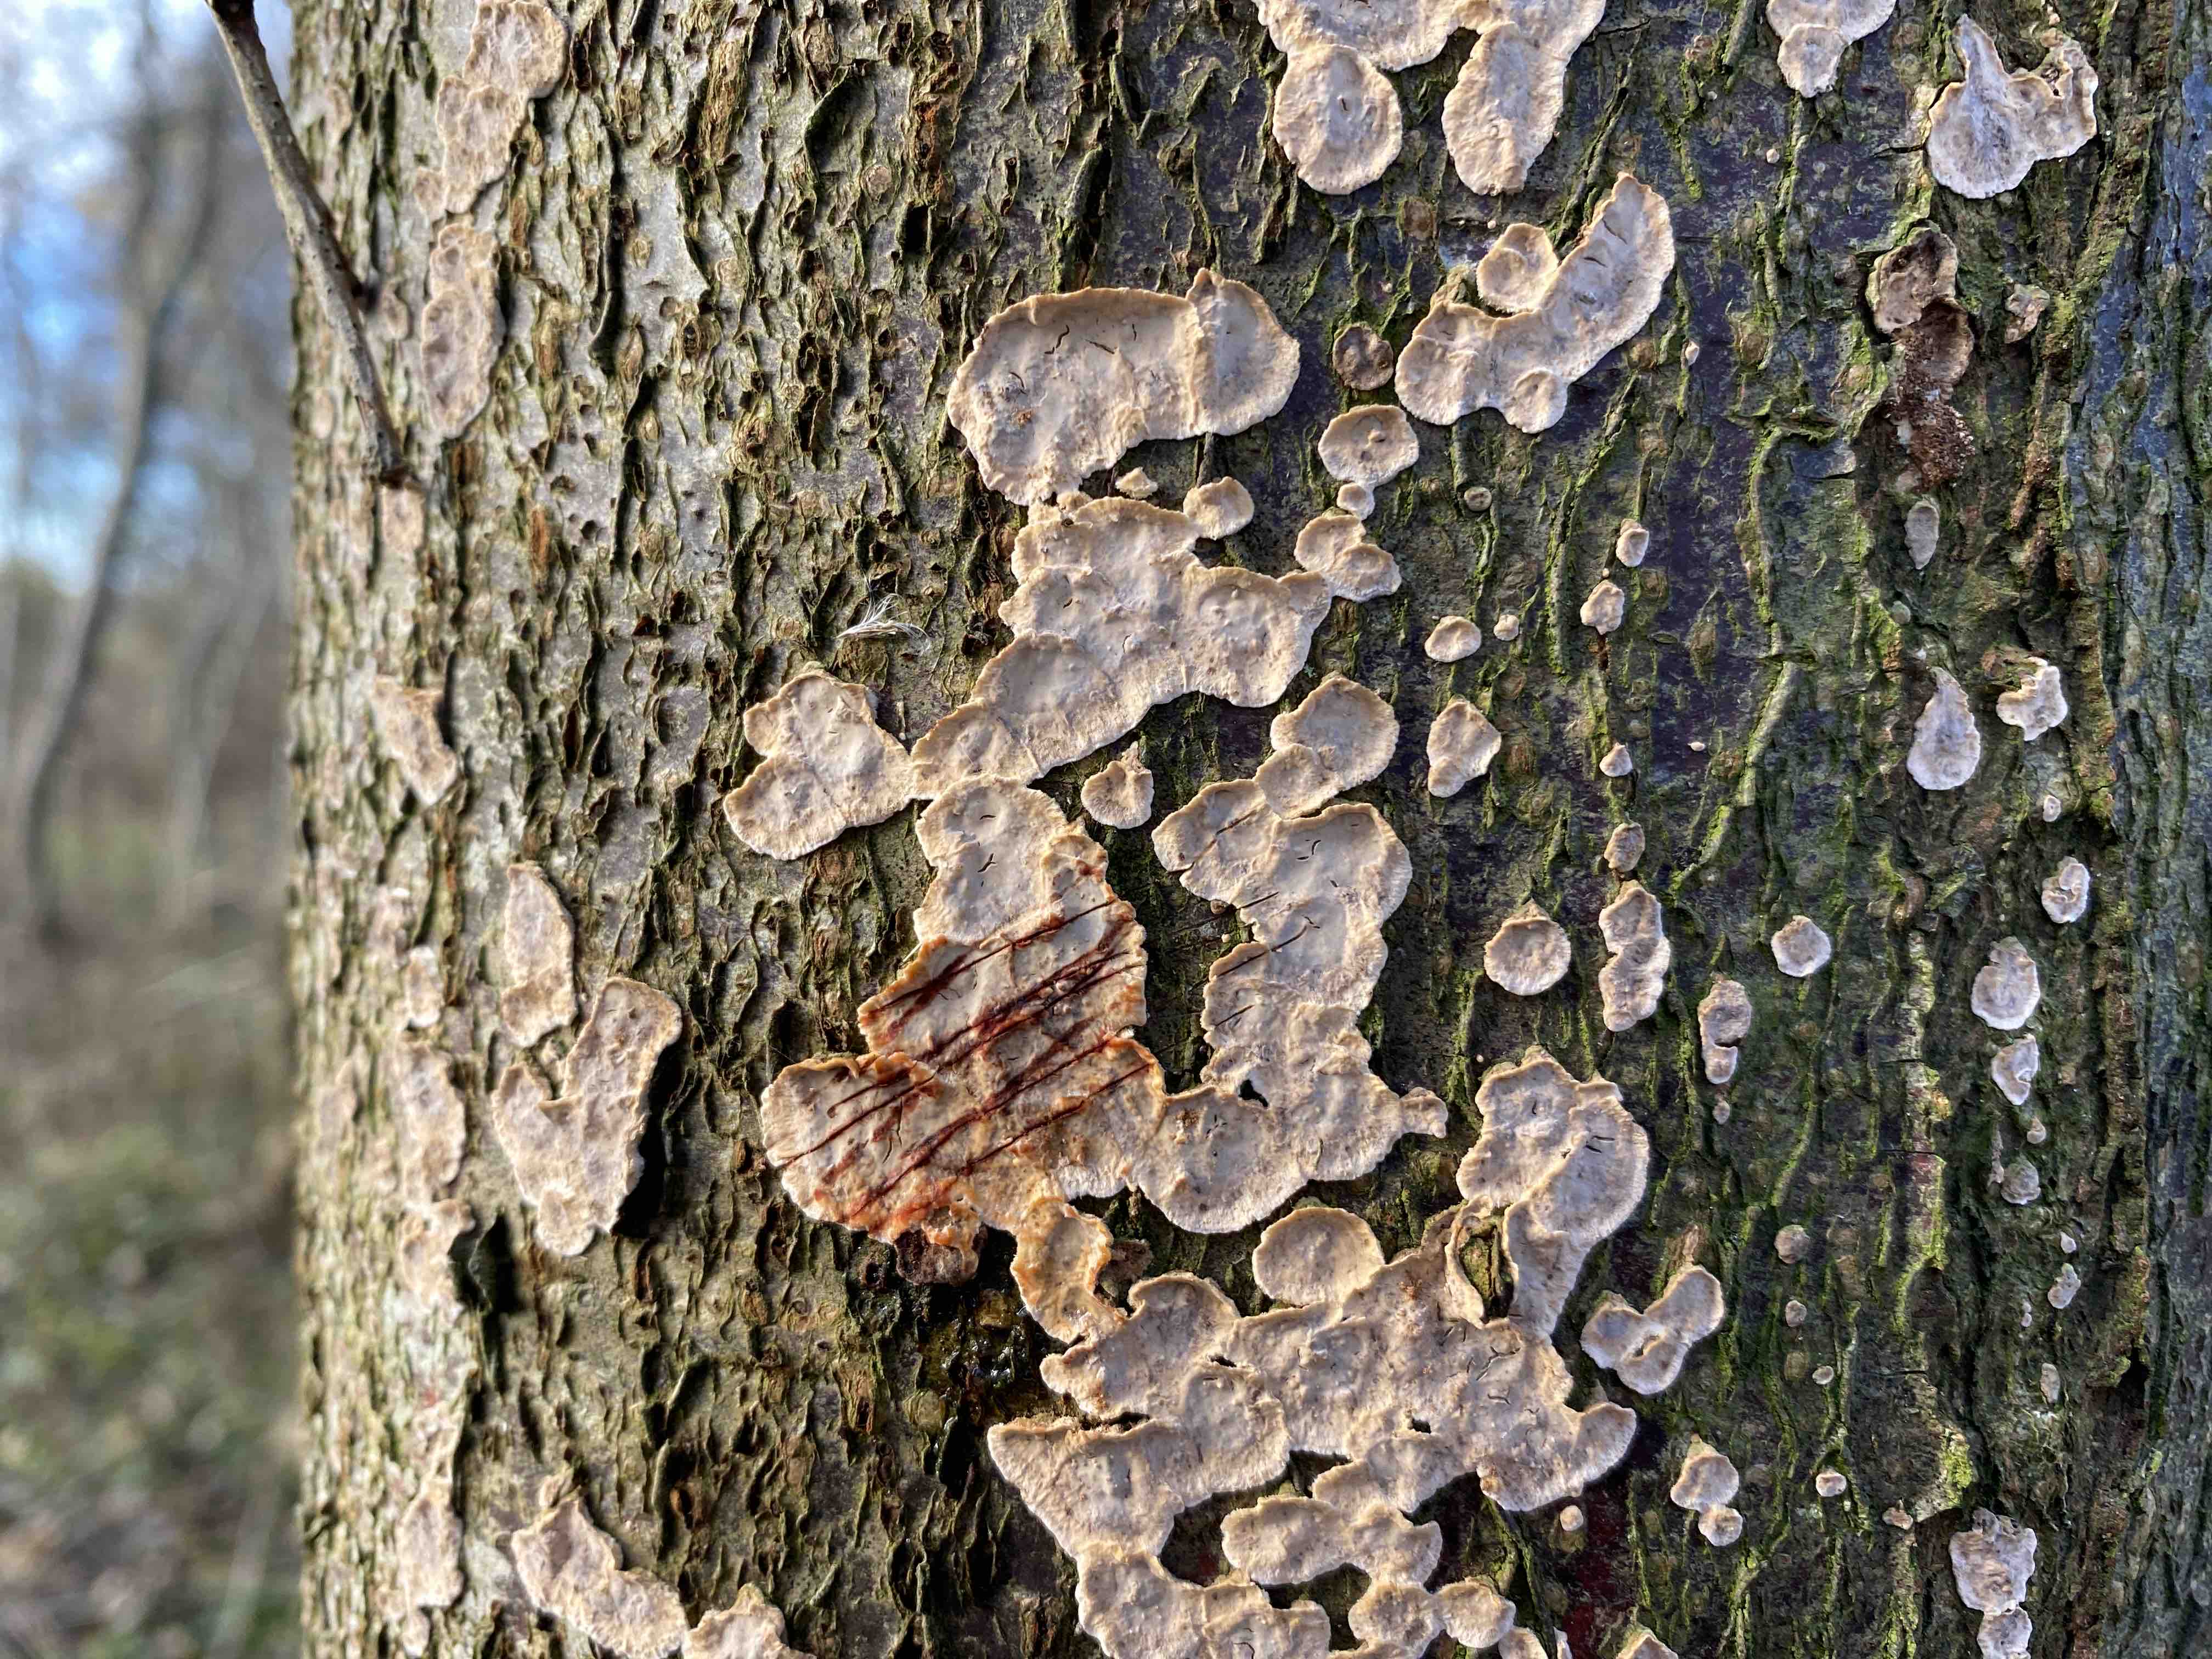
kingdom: Fungi
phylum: Basidiomycota
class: Agaricomycetes
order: Russulales
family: Stereaceae
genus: Stereum
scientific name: Stereum rugosum
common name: rynket lædersvamp
